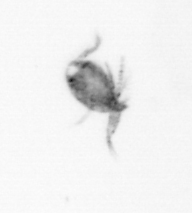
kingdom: Animalia
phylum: Arthropoda
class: Copepoda
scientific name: Copepoda
